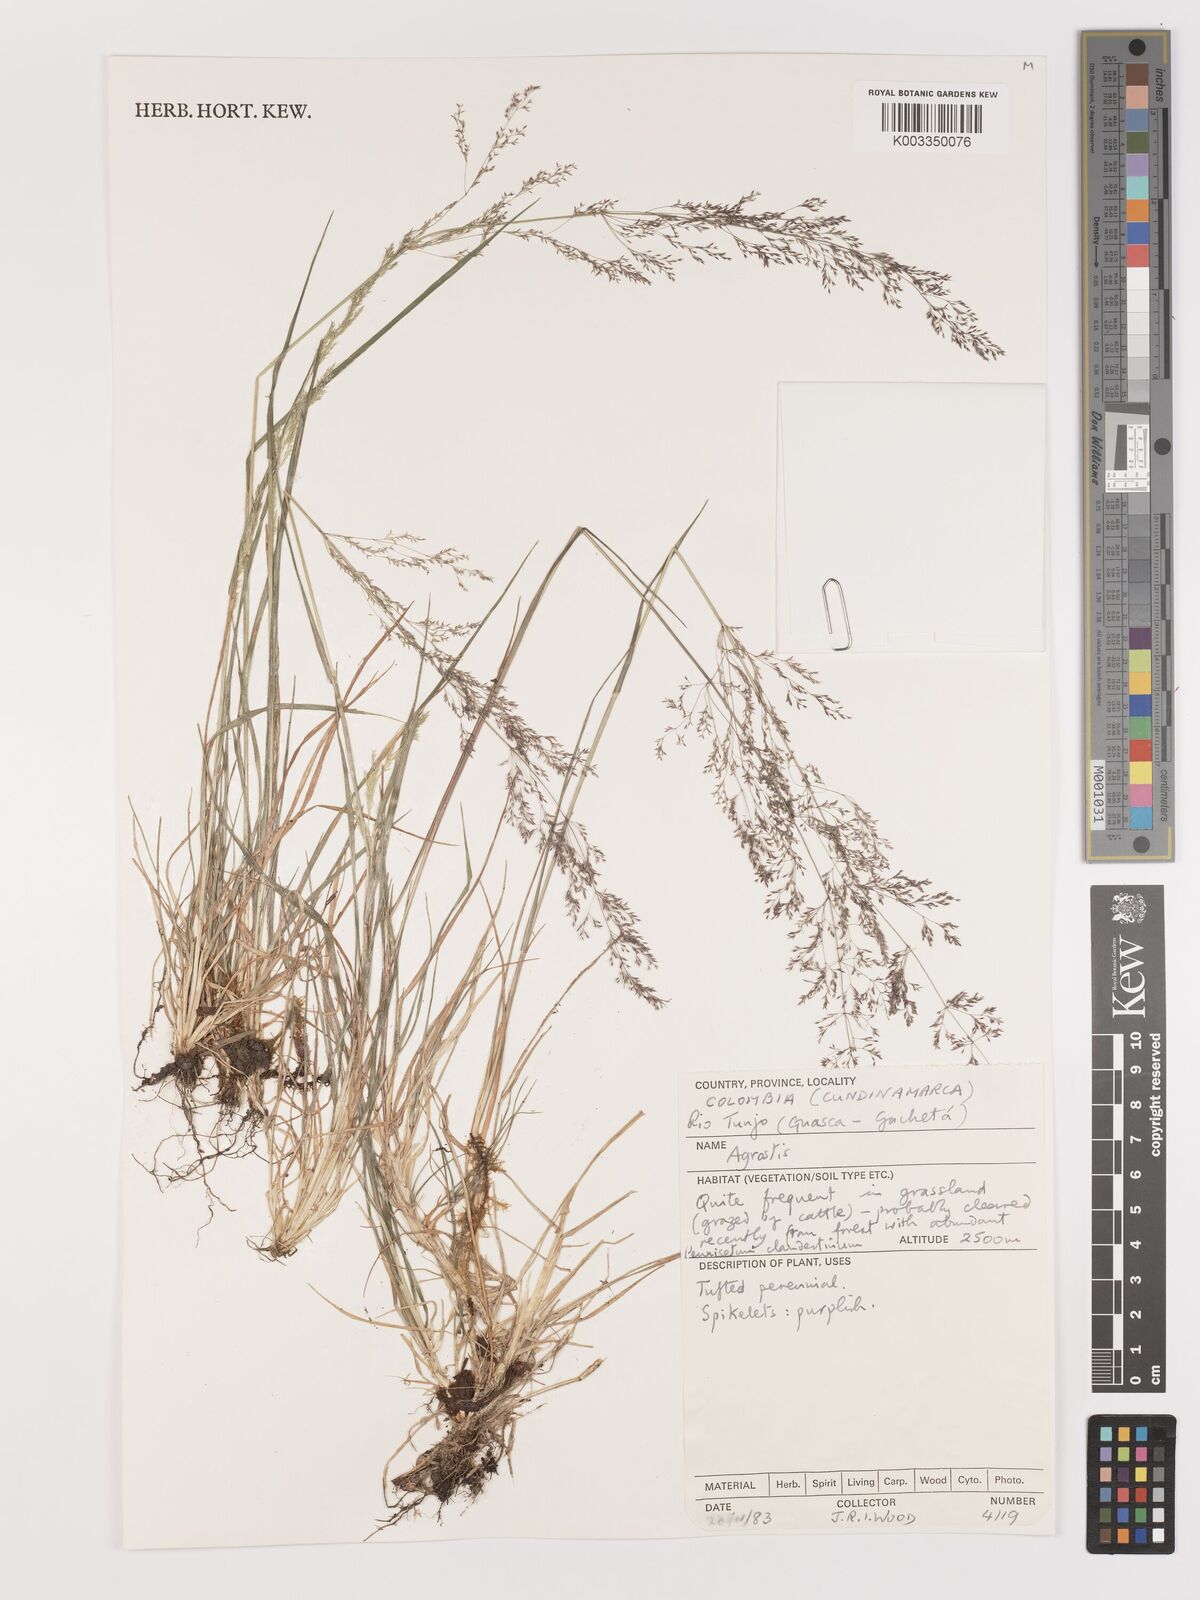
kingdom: Plantae
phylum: Tracheophyta
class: Liliopsida
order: Poales
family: Poaceae
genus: Agrostis
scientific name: Agrostis
